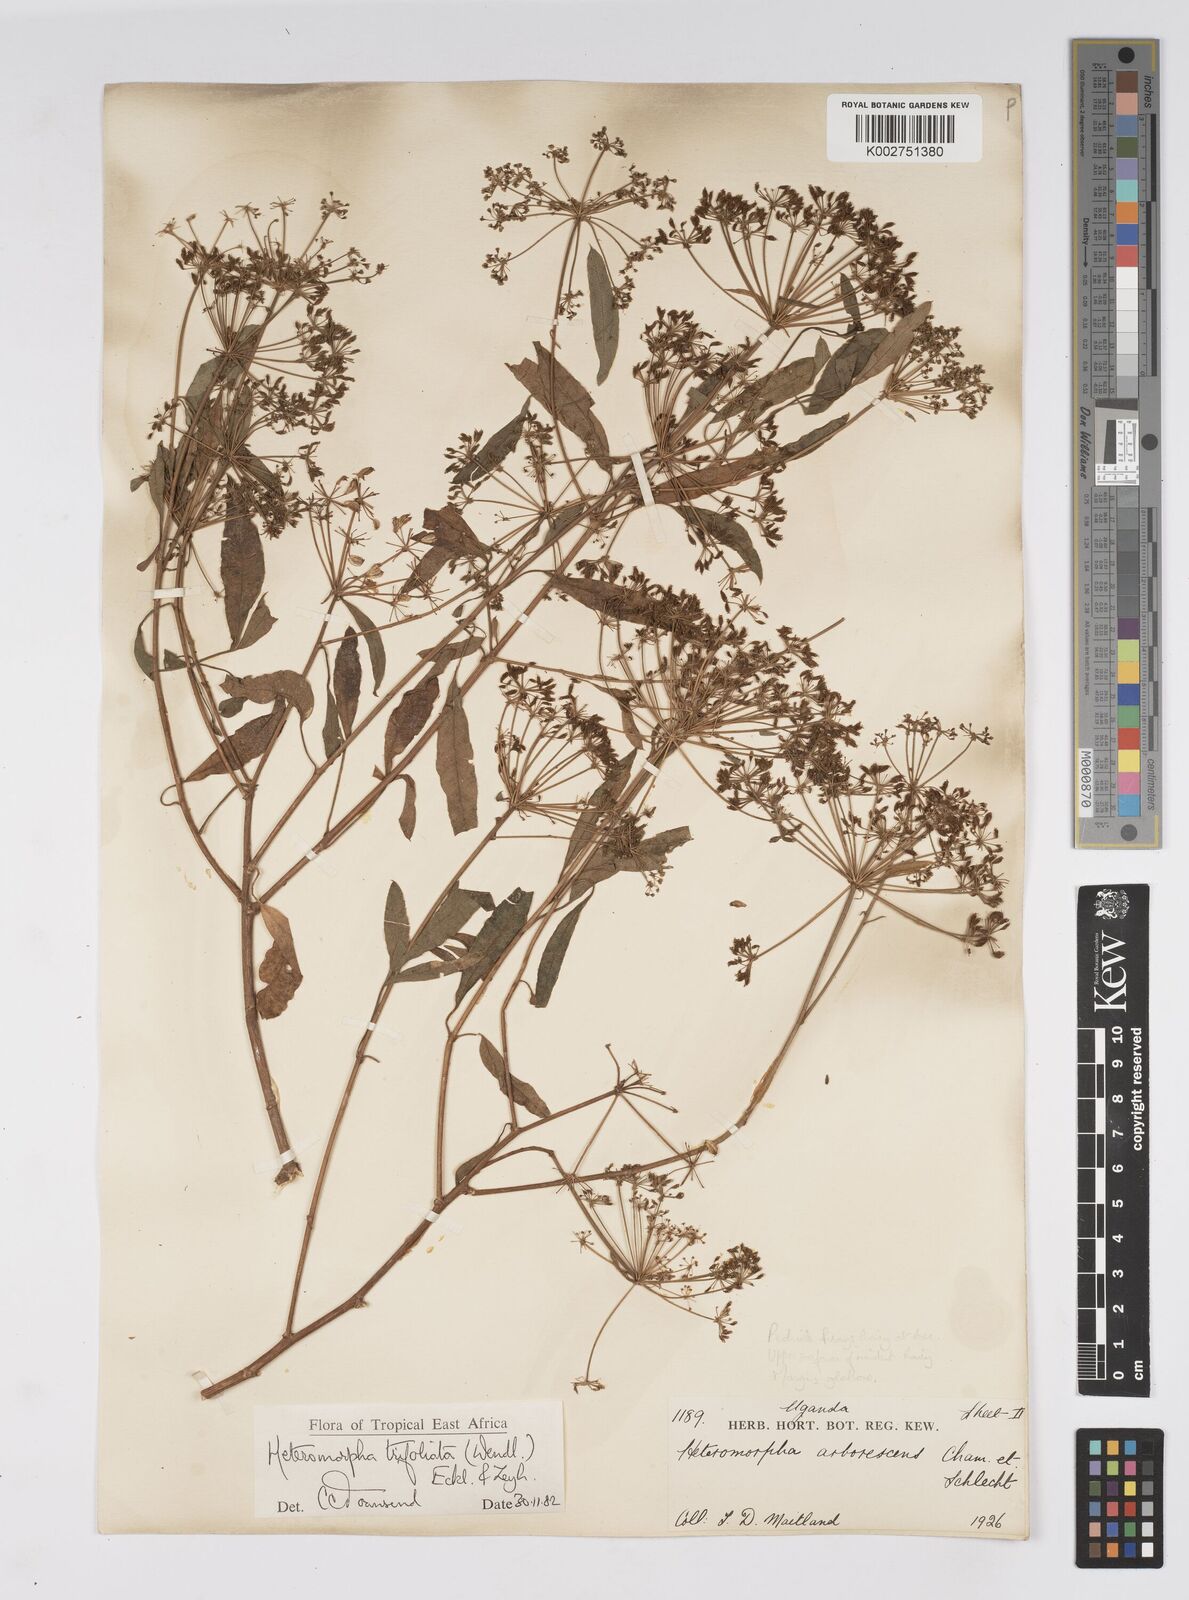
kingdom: Plantae
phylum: Tracheophyta
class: Magnoliopsida
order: Apiales
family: Apiaceae
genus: Heteromorpha
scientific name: Heteromorpha arborescens
